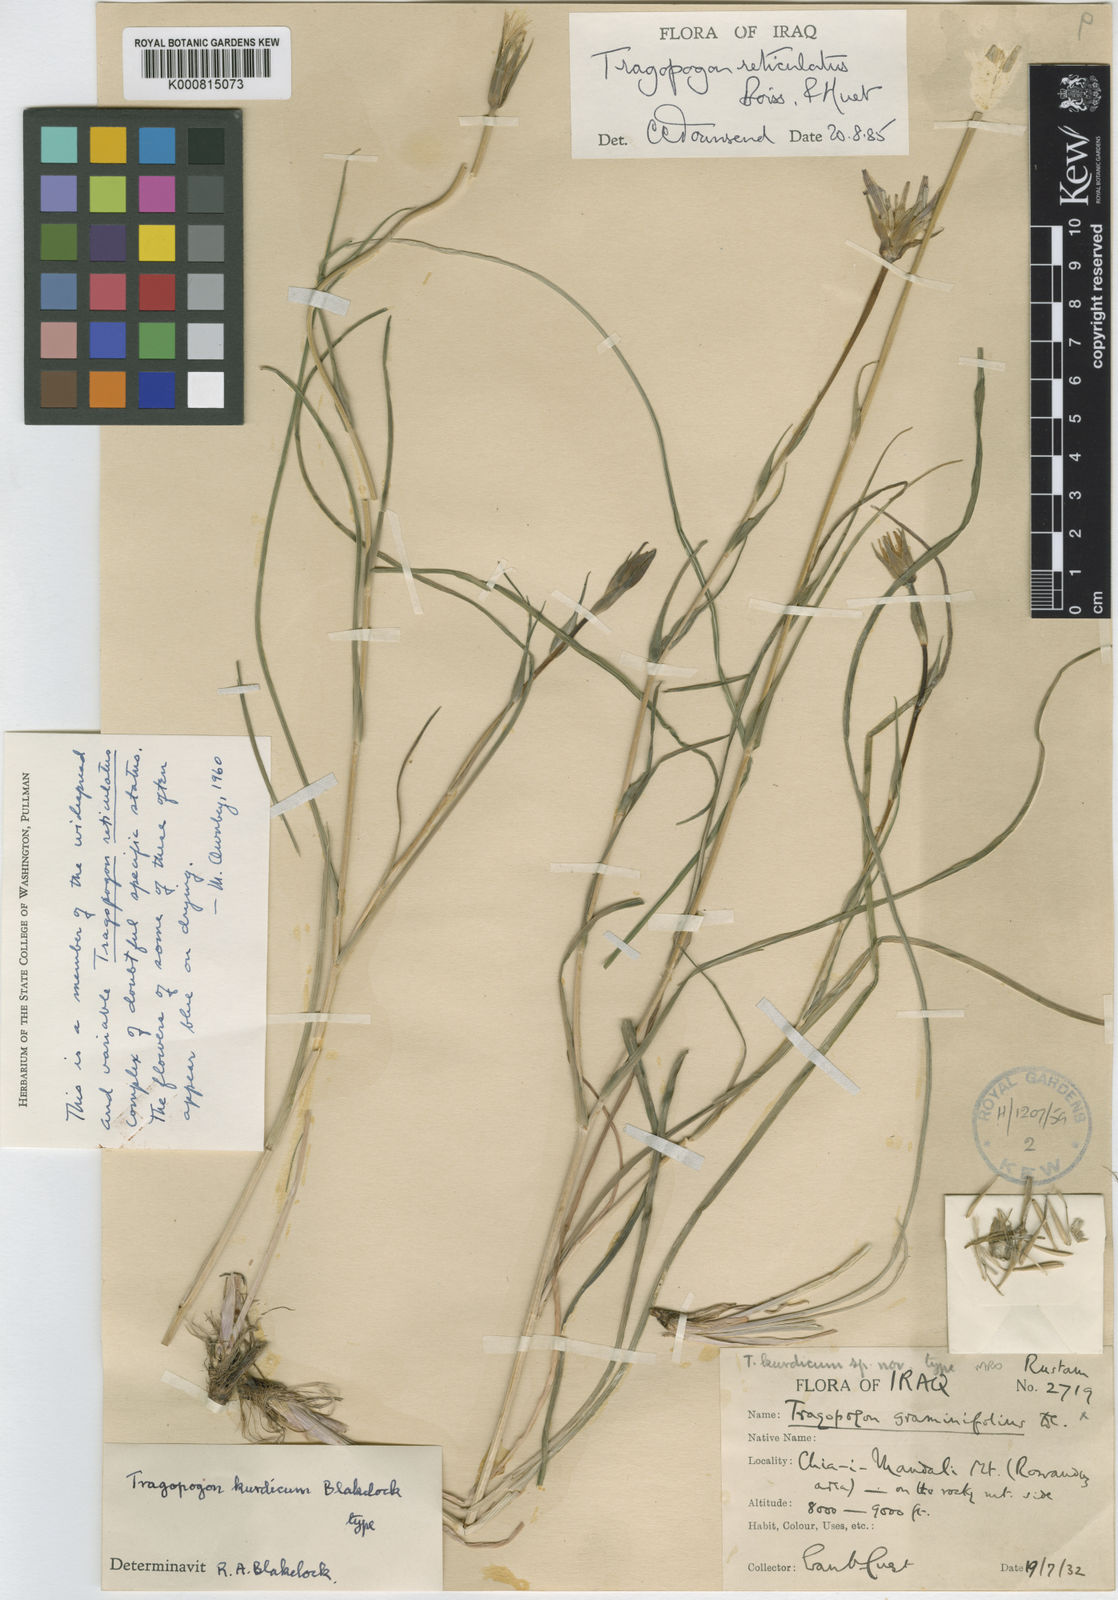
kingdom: Plantae
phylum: Tracheophyta
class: Magnoliopsida
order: Asterales
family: Asteraceae
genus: Tragopogon
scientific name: Tragopogon reticulatus
